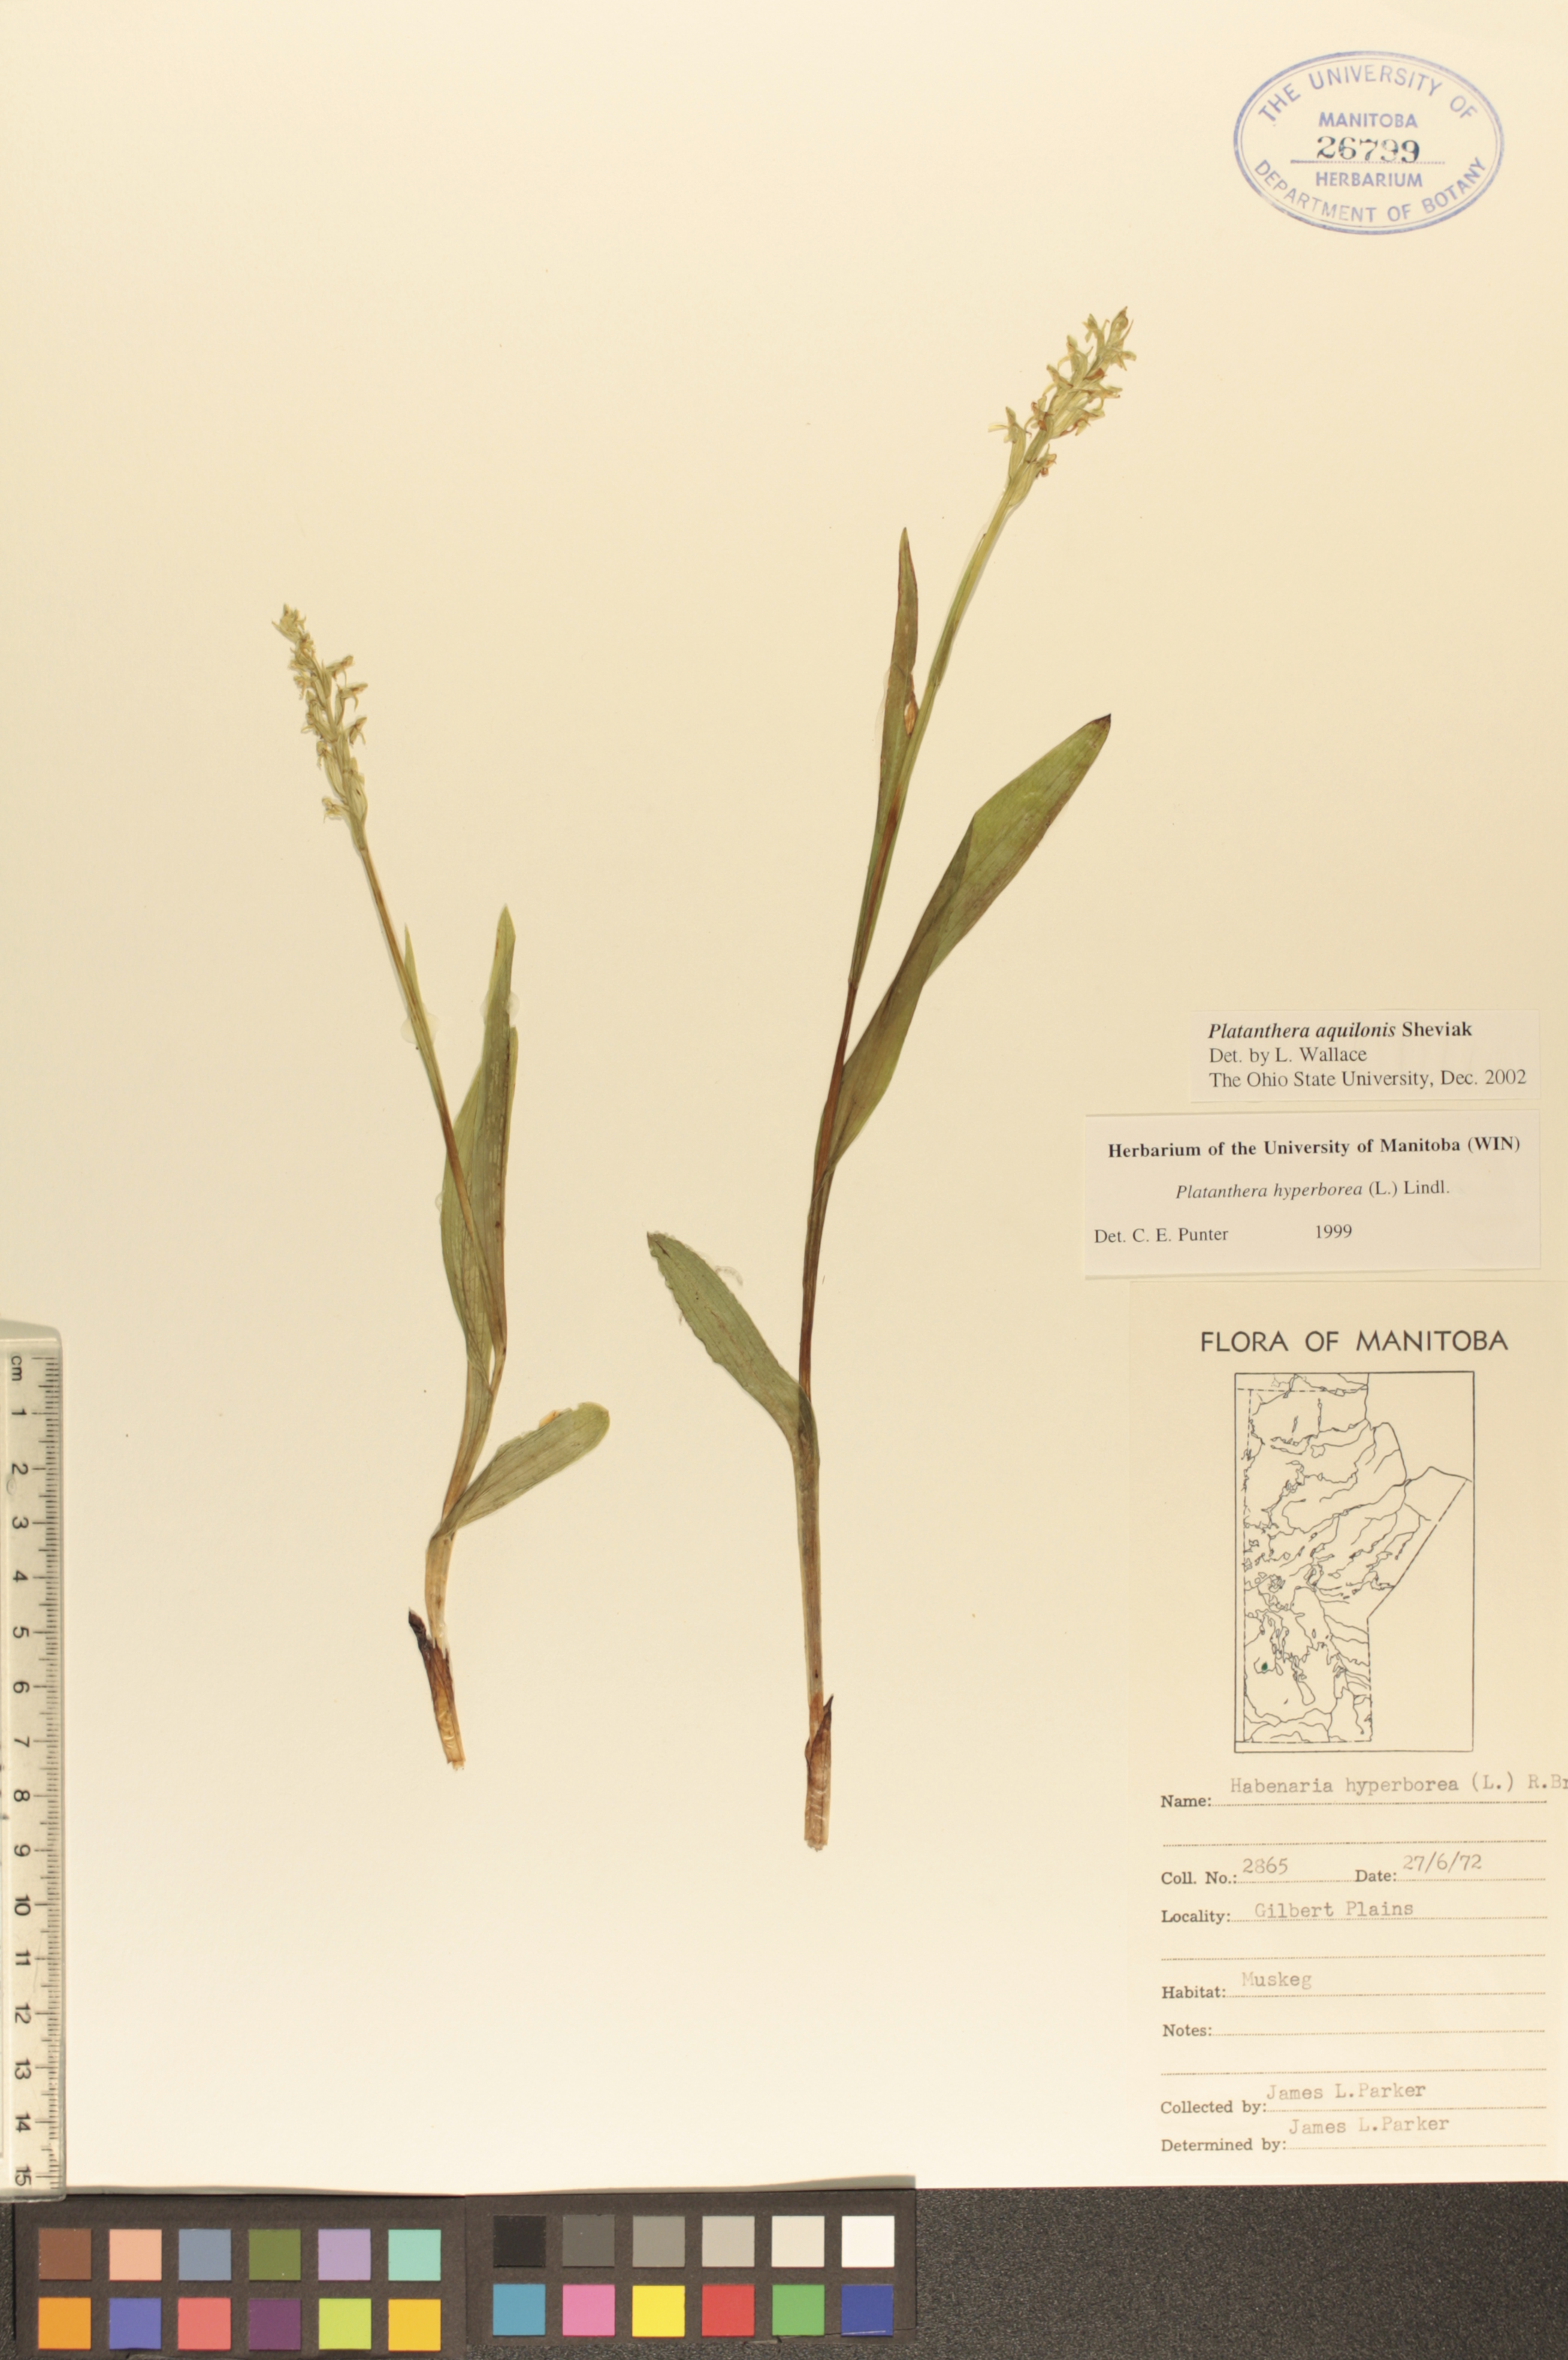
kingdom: Plantae
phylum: Tracheophyta
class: Liliopsida
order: Asparagales
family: Orchidaceae
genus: Platanthera
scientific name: Platanthera aquilonis
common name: Northern green orchid
